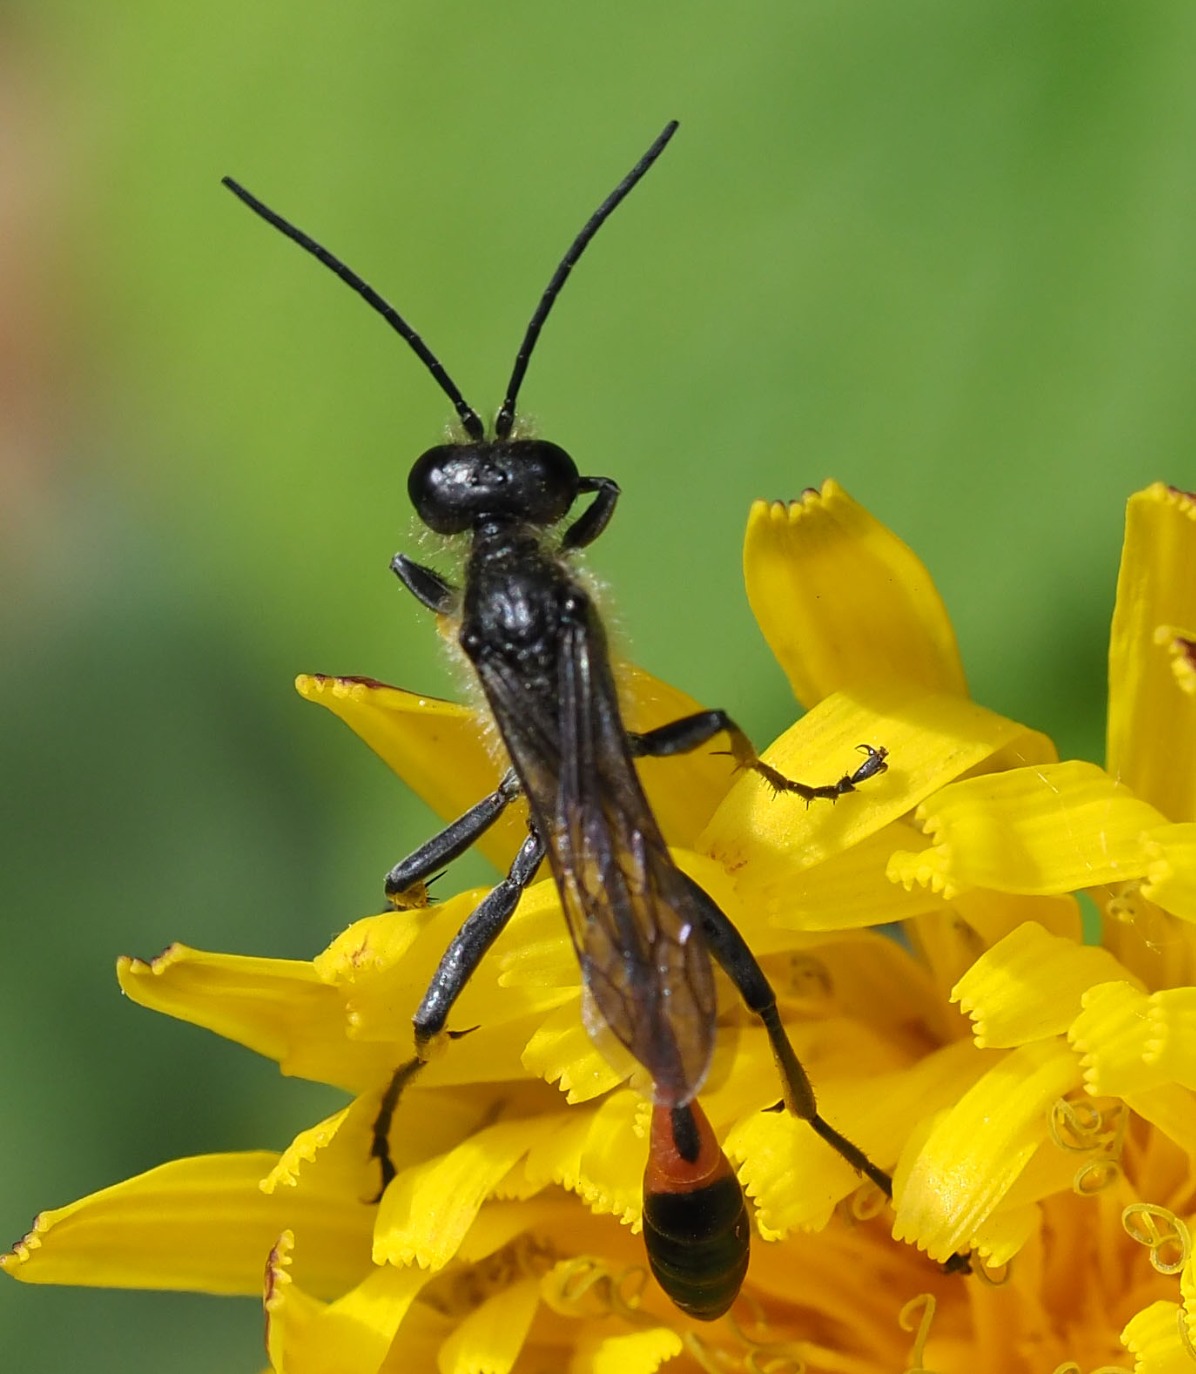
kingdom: Animalia
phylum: Arthropoda
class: Insecta
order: Hymenoptera
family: Sphecidae
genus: Ammophila
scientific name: Ammophila sabulosa
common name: Almindelig sandhveps
